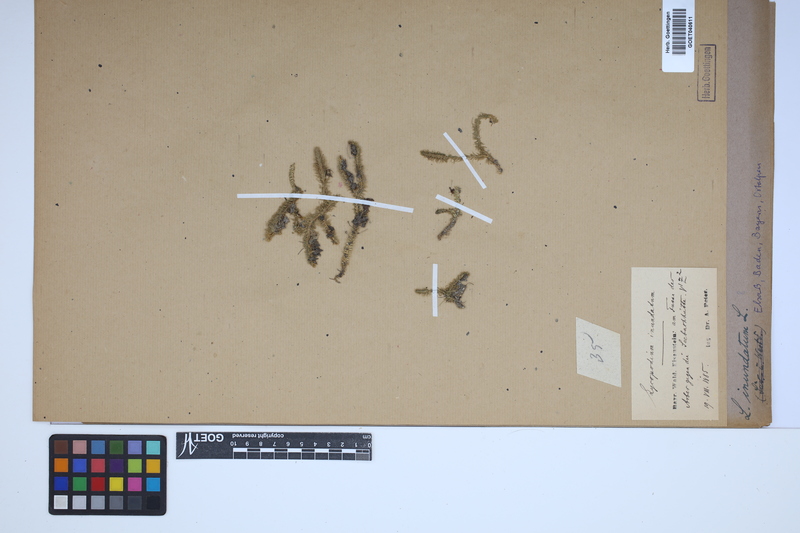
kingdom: Plantae
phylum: Tracheophyta
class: Lycopodiopsida
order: Lycopodiales
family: Lycopodiaceae
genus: Lycopodiella
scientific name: Lycopodiella inundata
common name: Marsh clubmoss
